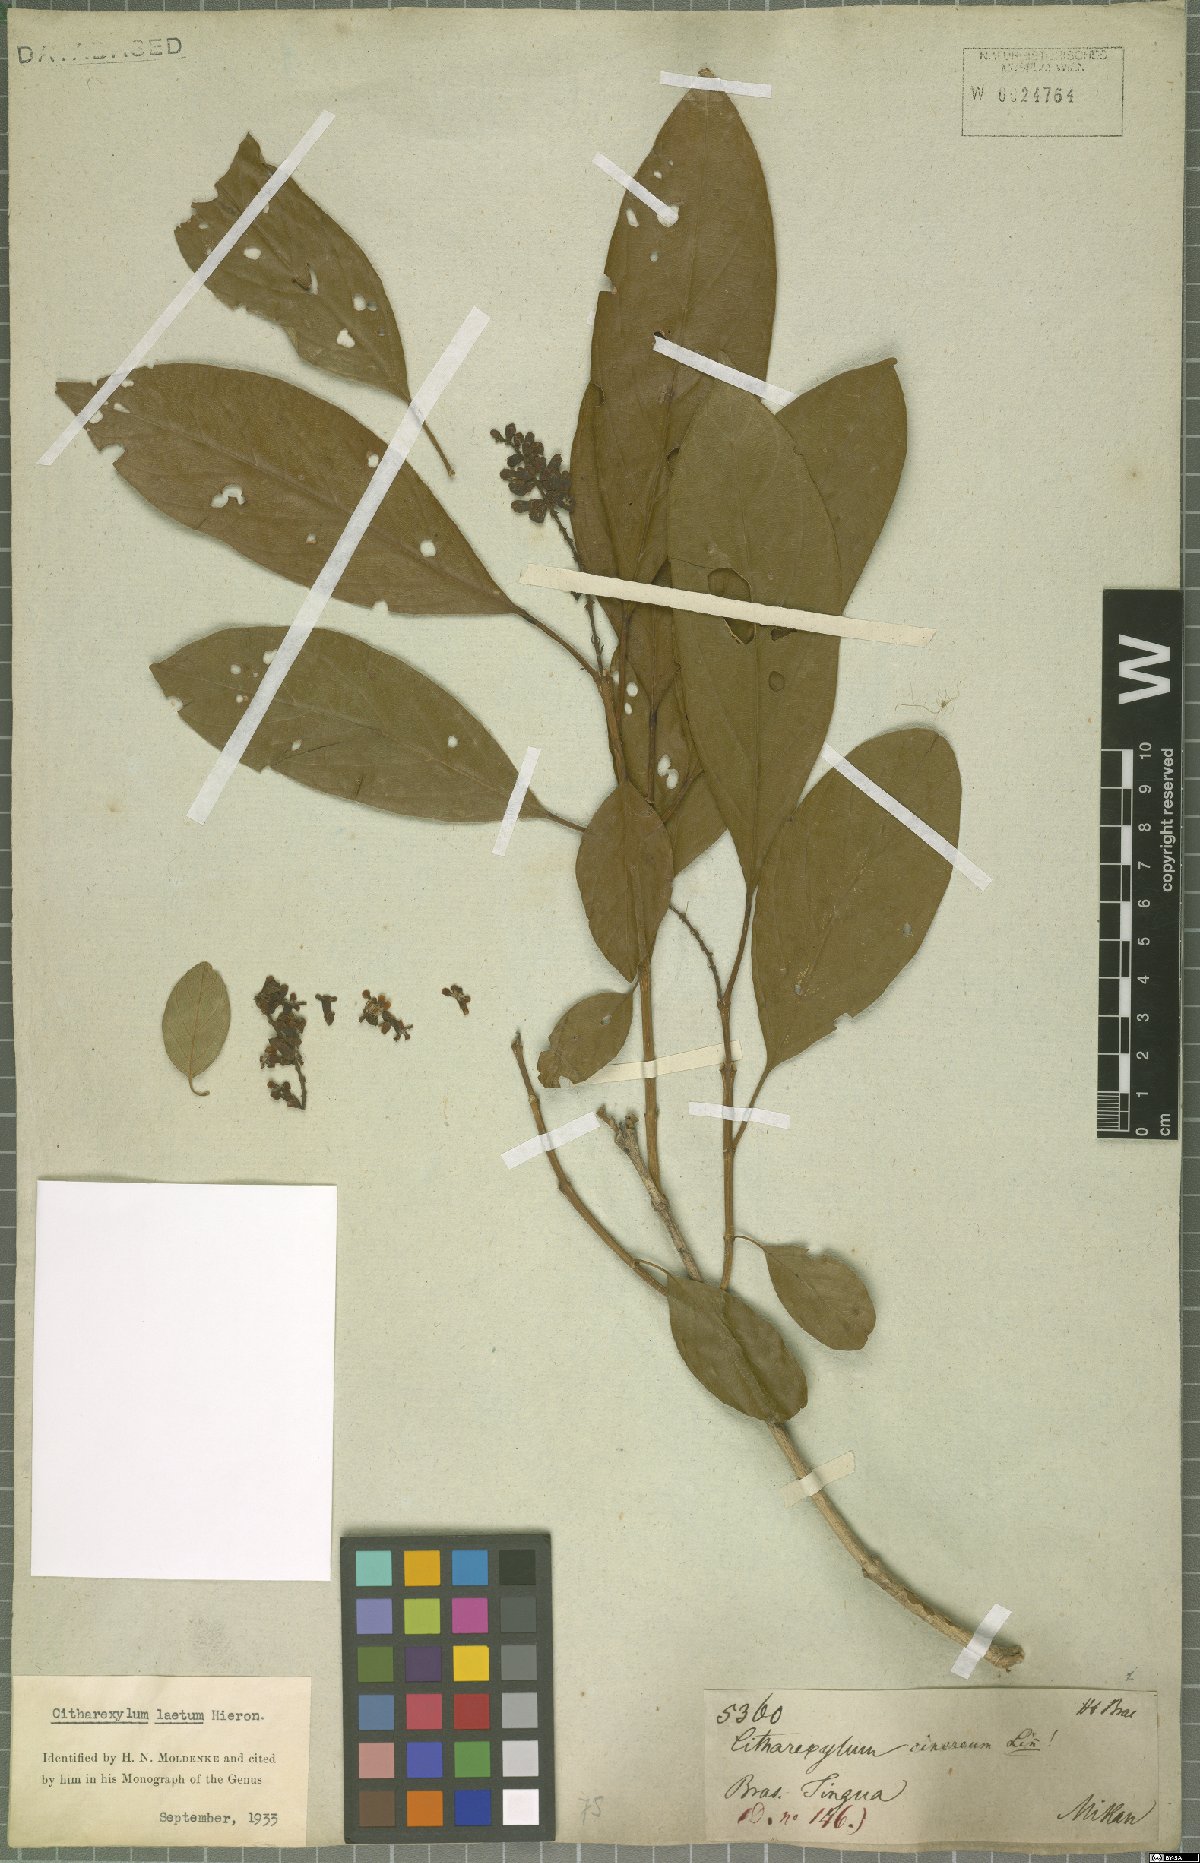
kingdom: Plantae
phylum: Tracheophyta
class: Magnoliopsida
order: Lamiales
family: Verbenaceae
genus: Citharexylum
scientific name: Citharexylum myrianthum
